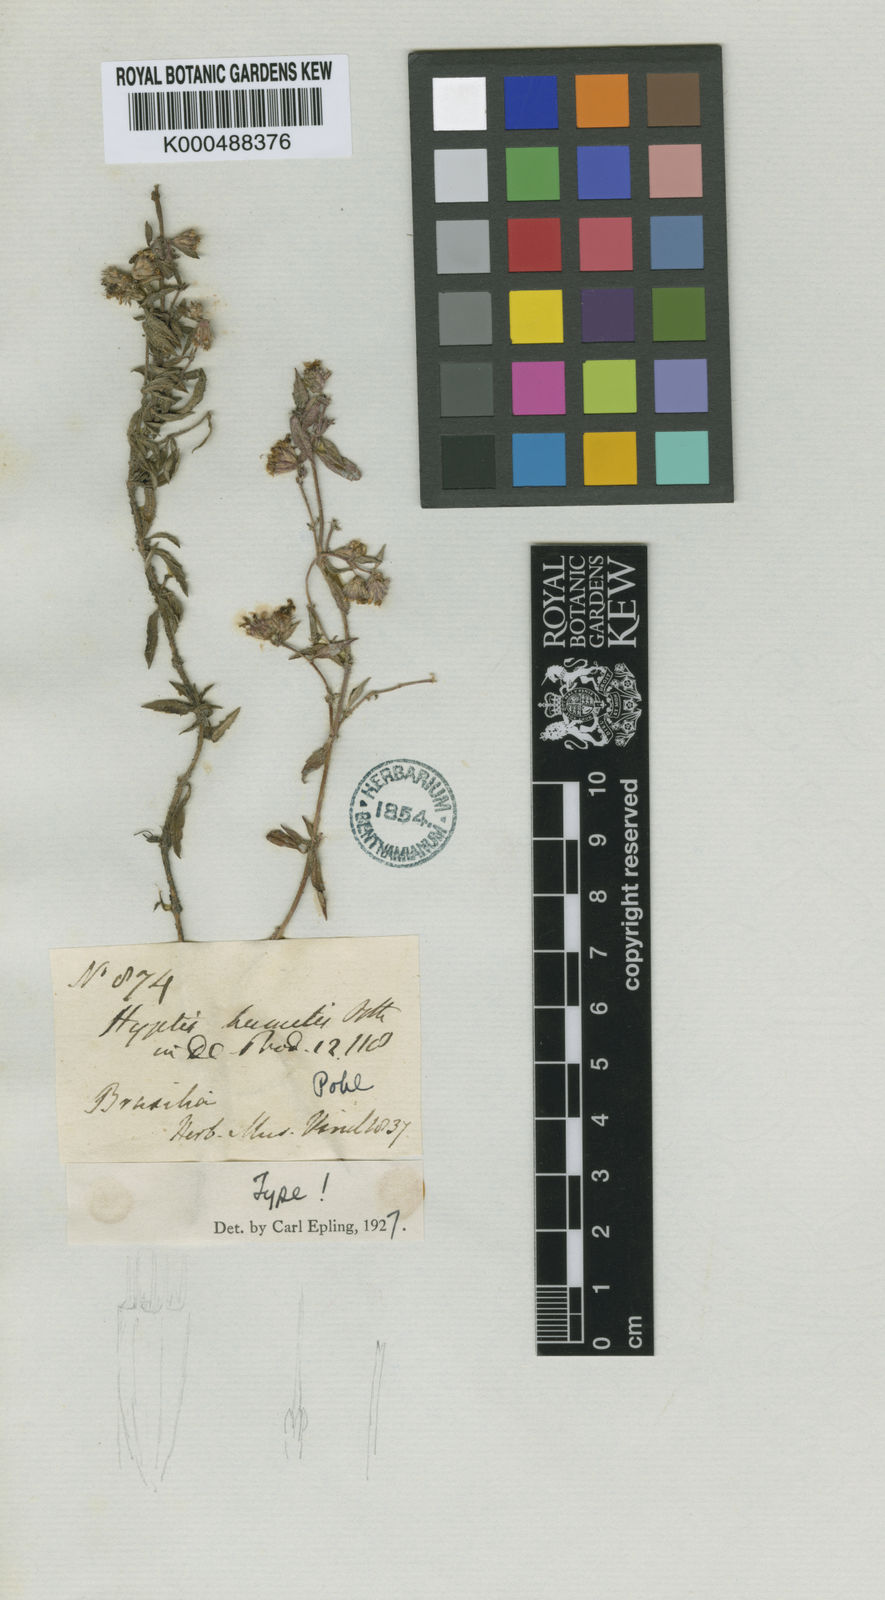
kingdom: Plantae
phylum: Tracheophyta
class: Magnoliopsida
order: Lamiales
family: Lamiaceae
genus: Hyptis
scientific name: Hyptis humilis
